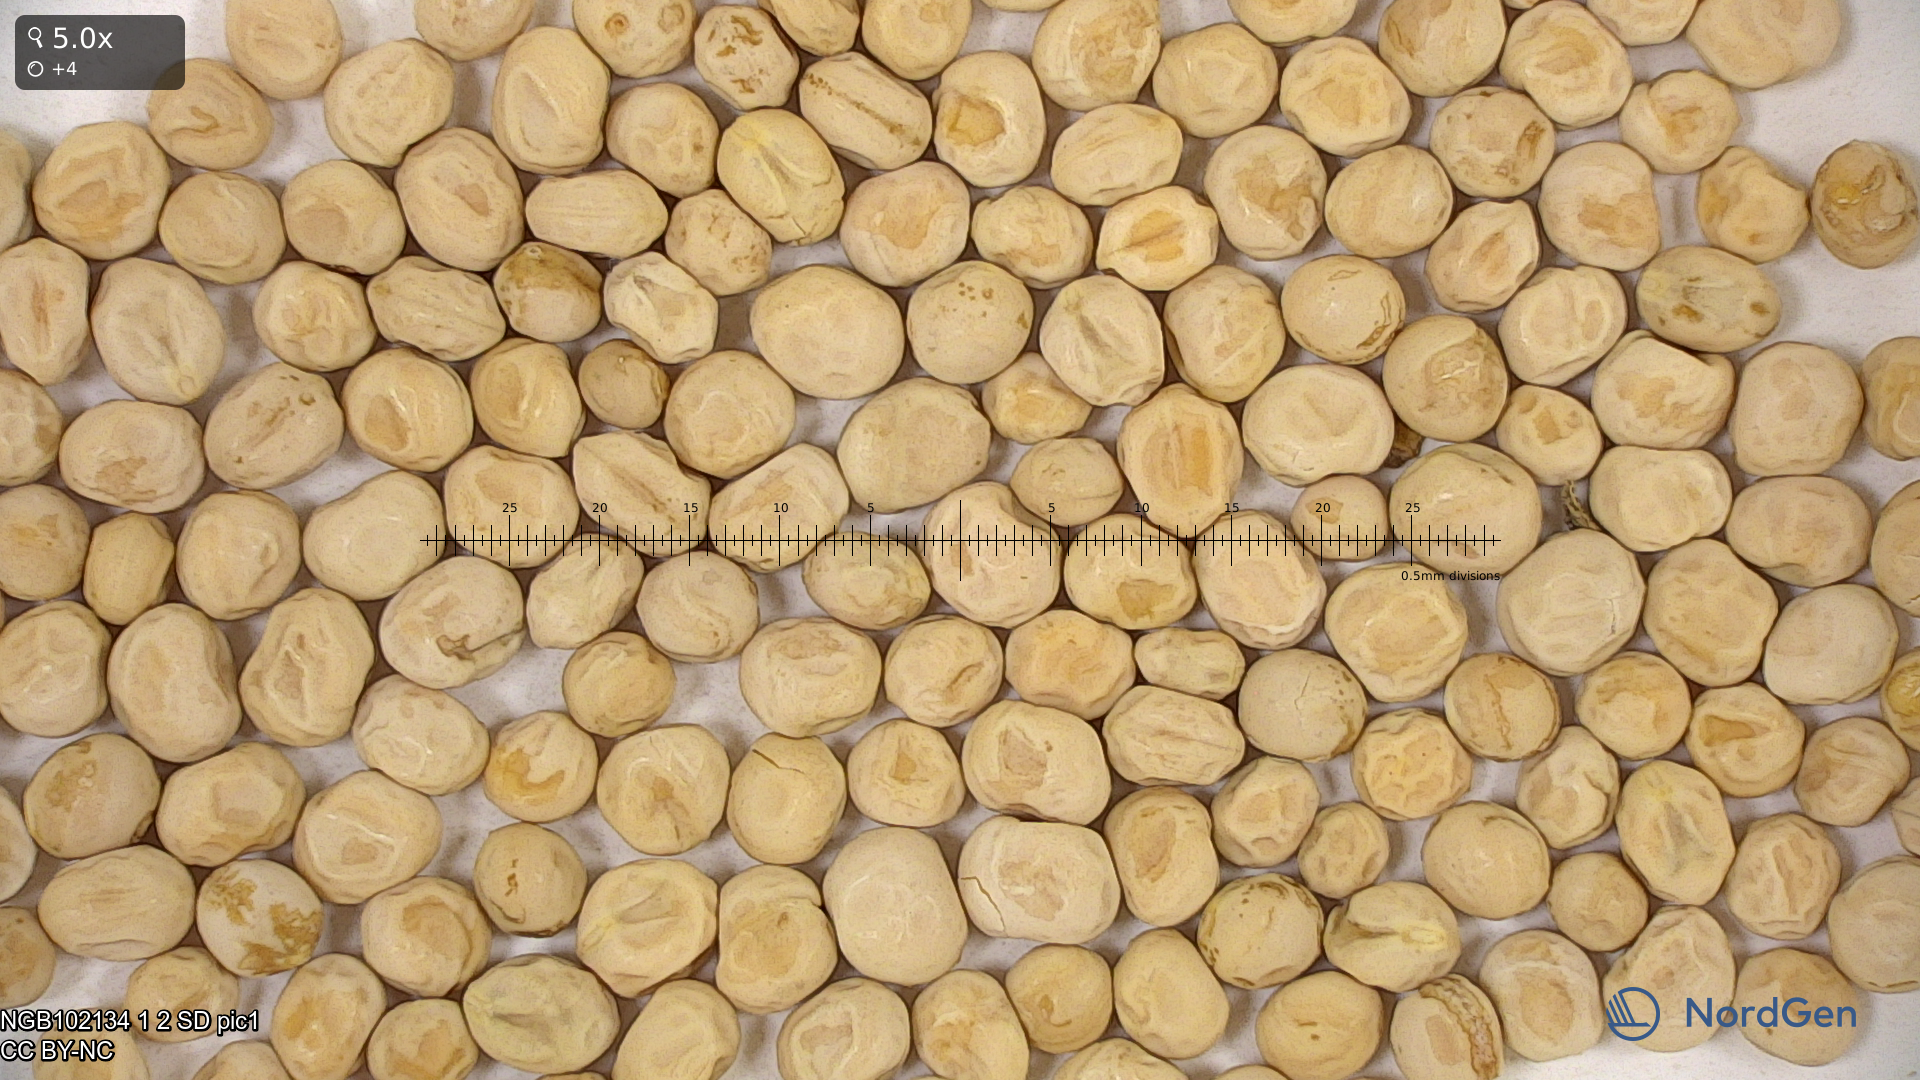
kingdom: Plantae
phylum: Tracheophyta
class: Magnoliopsida
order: Fabales
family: Fabaceae
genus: Lathyrus
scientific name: Lathyrus oleraceus
